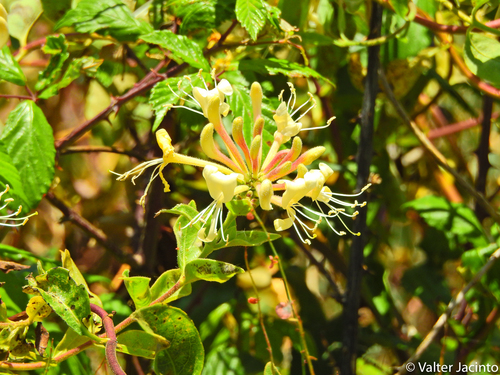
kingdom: Plantae
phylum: Tracheophyta
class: Magnoliopsida
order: Dipsacales
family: Caprifoliaceae
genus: Lonicera
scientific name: Lonicera periclymenum
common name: European honeysuckle
